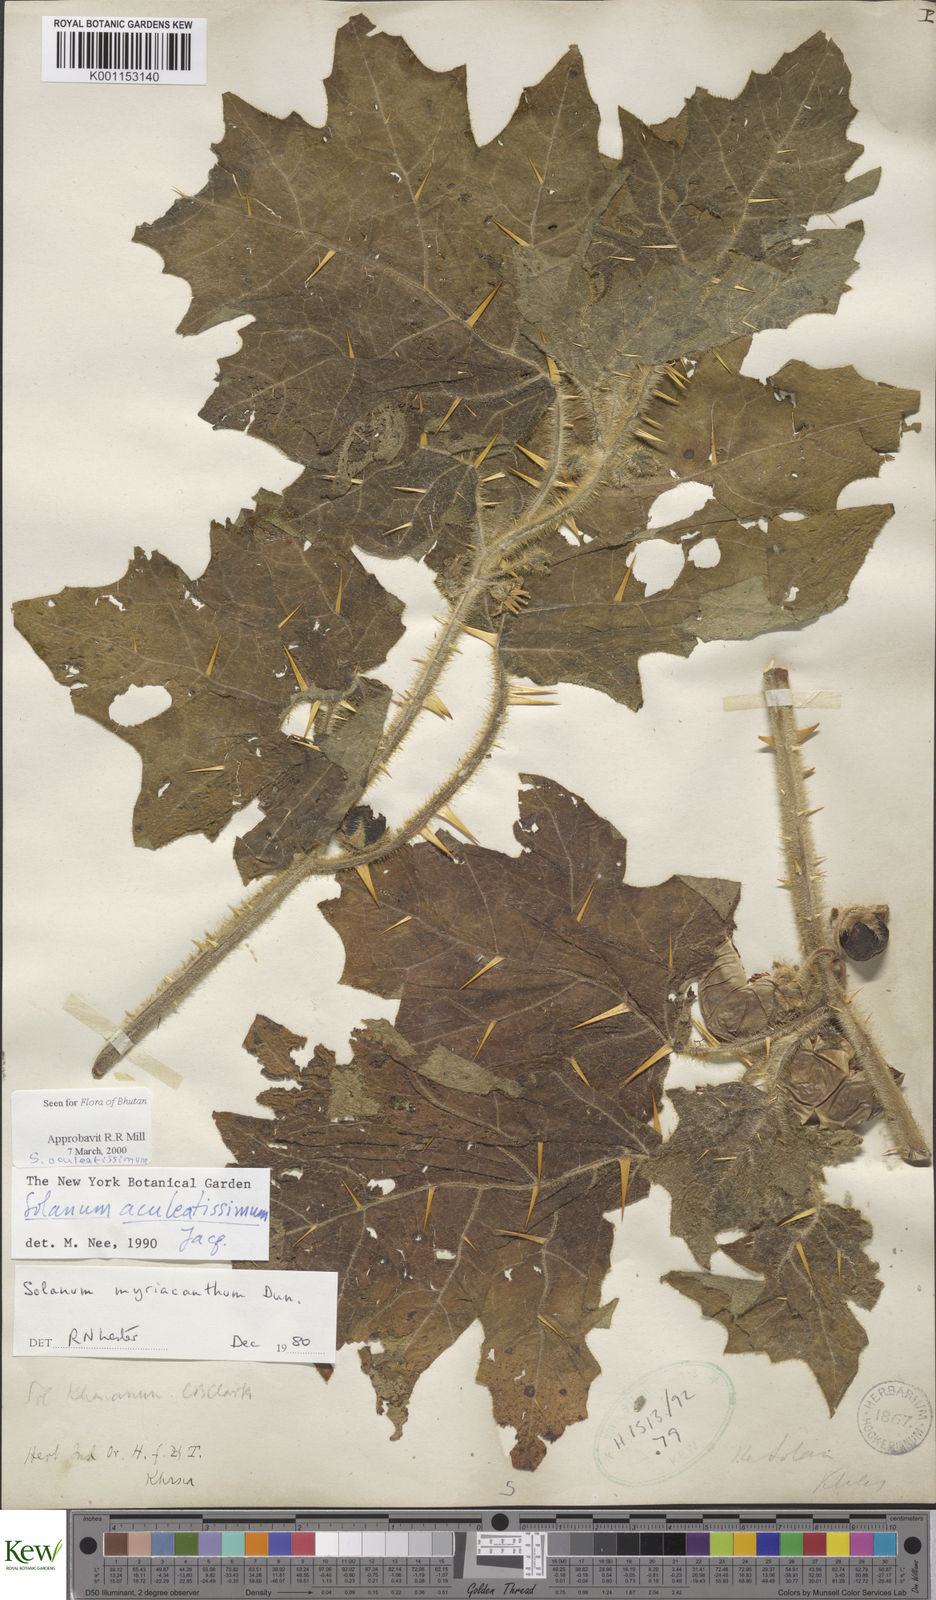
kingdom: Plantae
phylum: Tracheophyta
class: Magnoliopsida
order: Solanales
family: Solanaceae
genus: Solanum
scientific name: Solanum aculeatissimum
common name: Dutch eggplant
